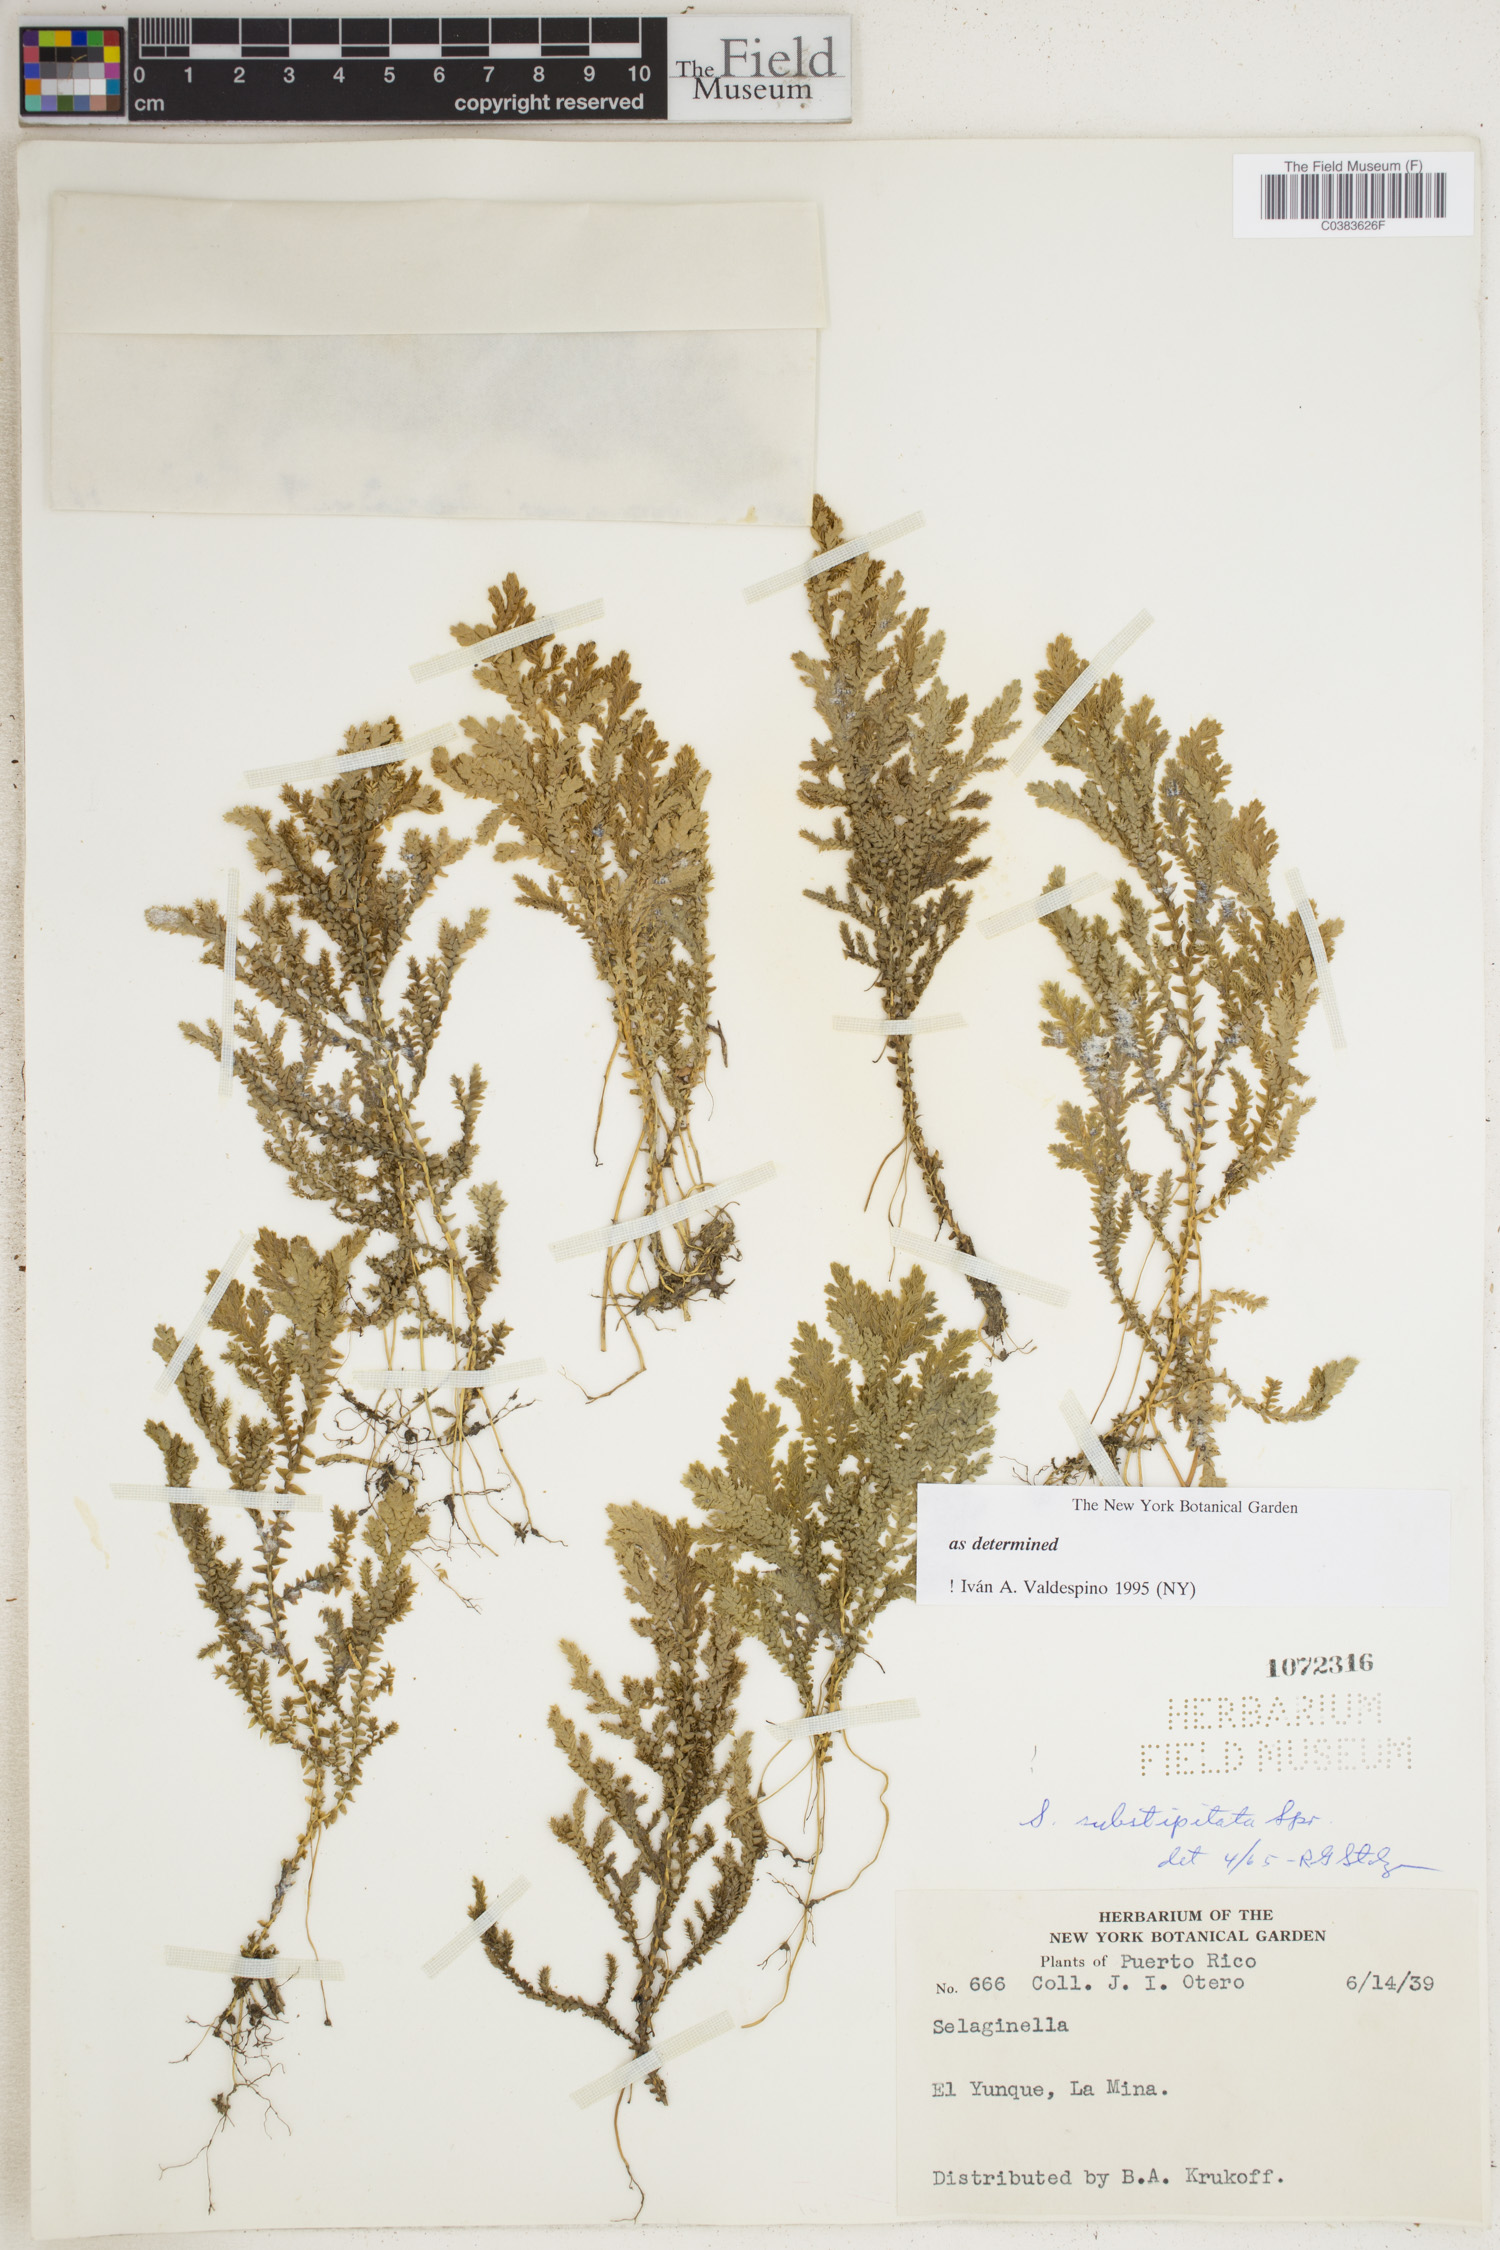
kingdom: Plantae
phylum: Tracheophyta
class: Lycopodiopsida
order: Selaginellales
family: Selaginellaceae
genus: Selaginella
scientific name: Selaginella substipitata
